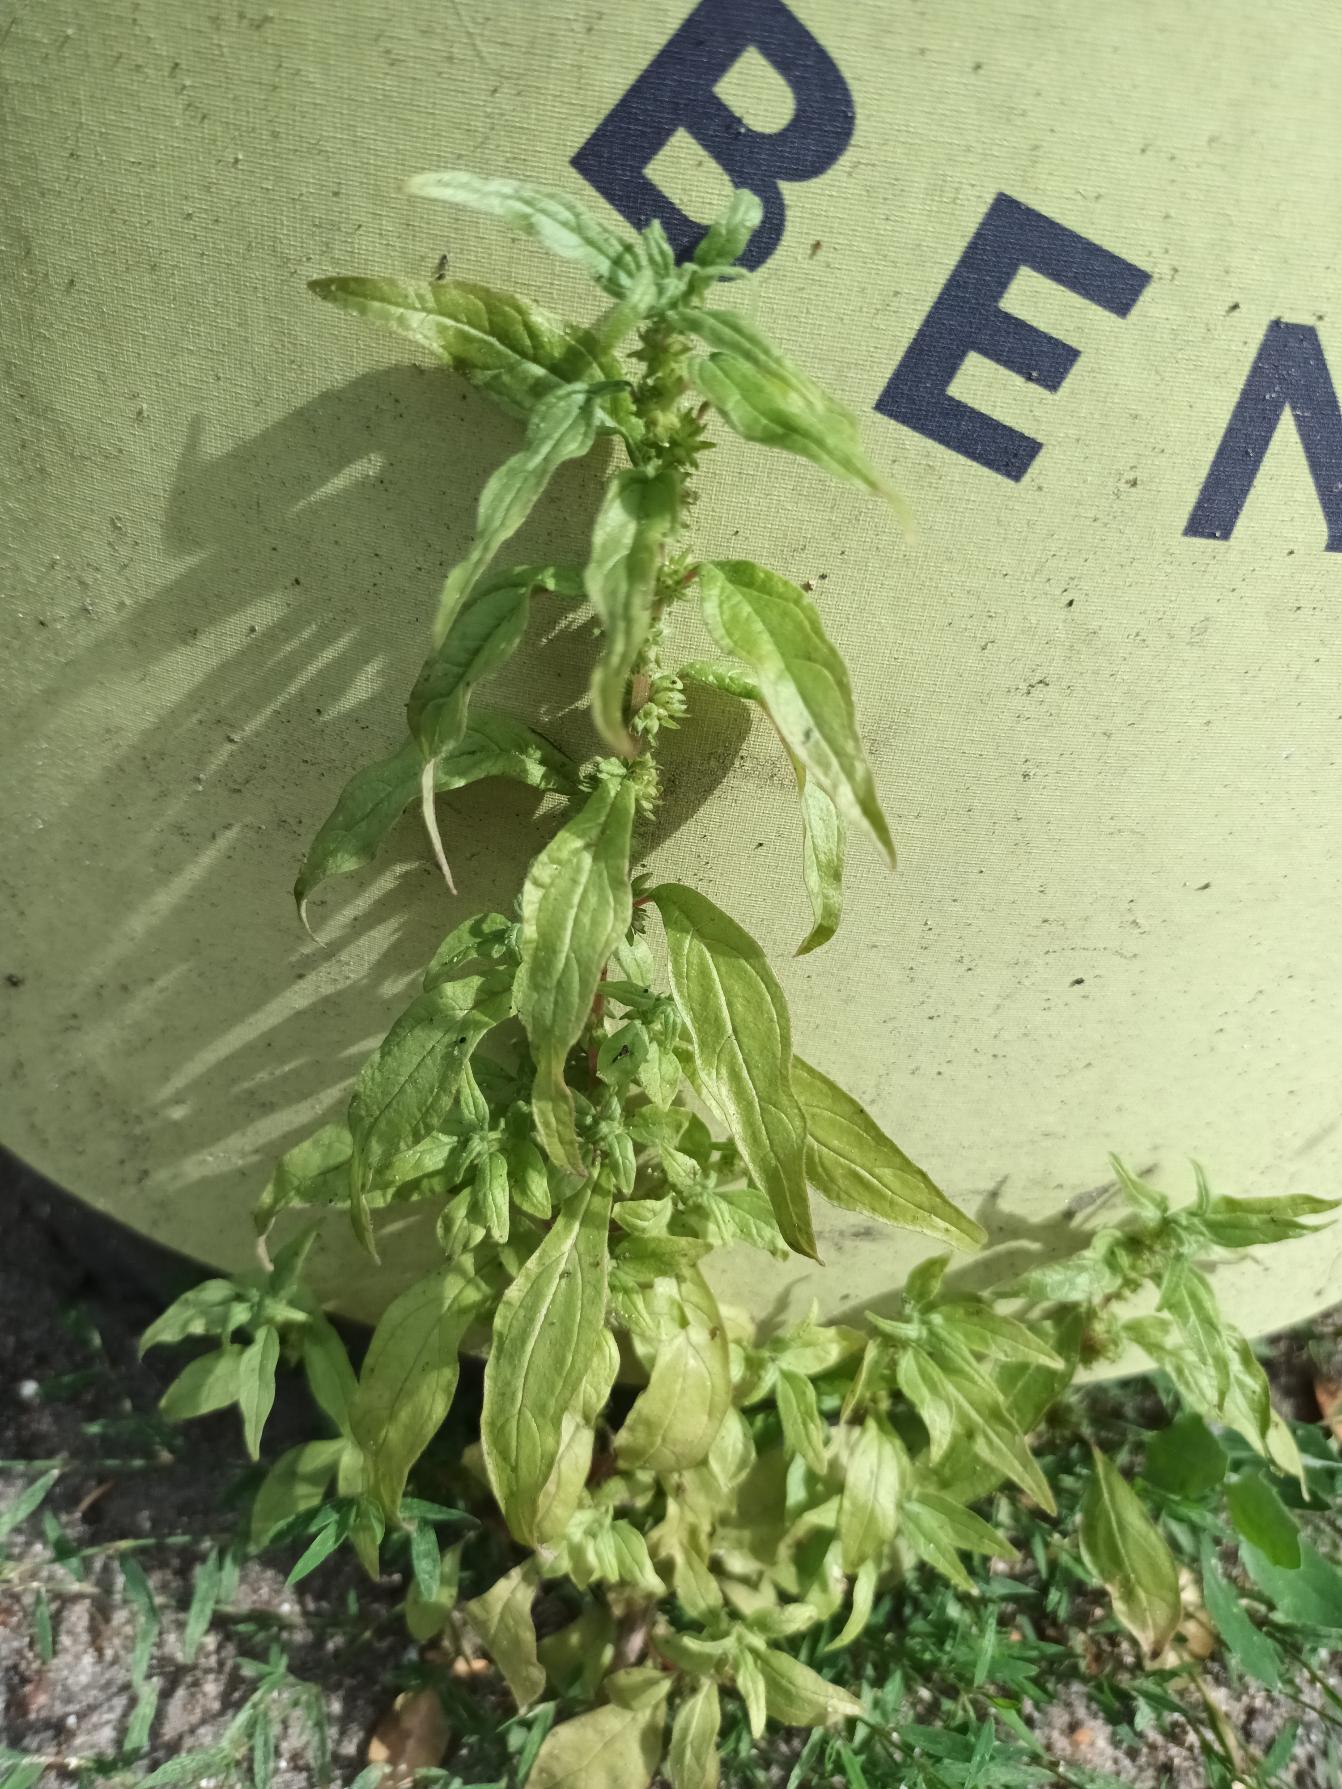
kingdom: Plantae
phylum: Tracheophyta
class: Magnoliopsida
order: Rosales
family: Urticaceae
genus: Parietaria
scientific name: Parietaria pensylvanica
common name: Amerikansk springknap
